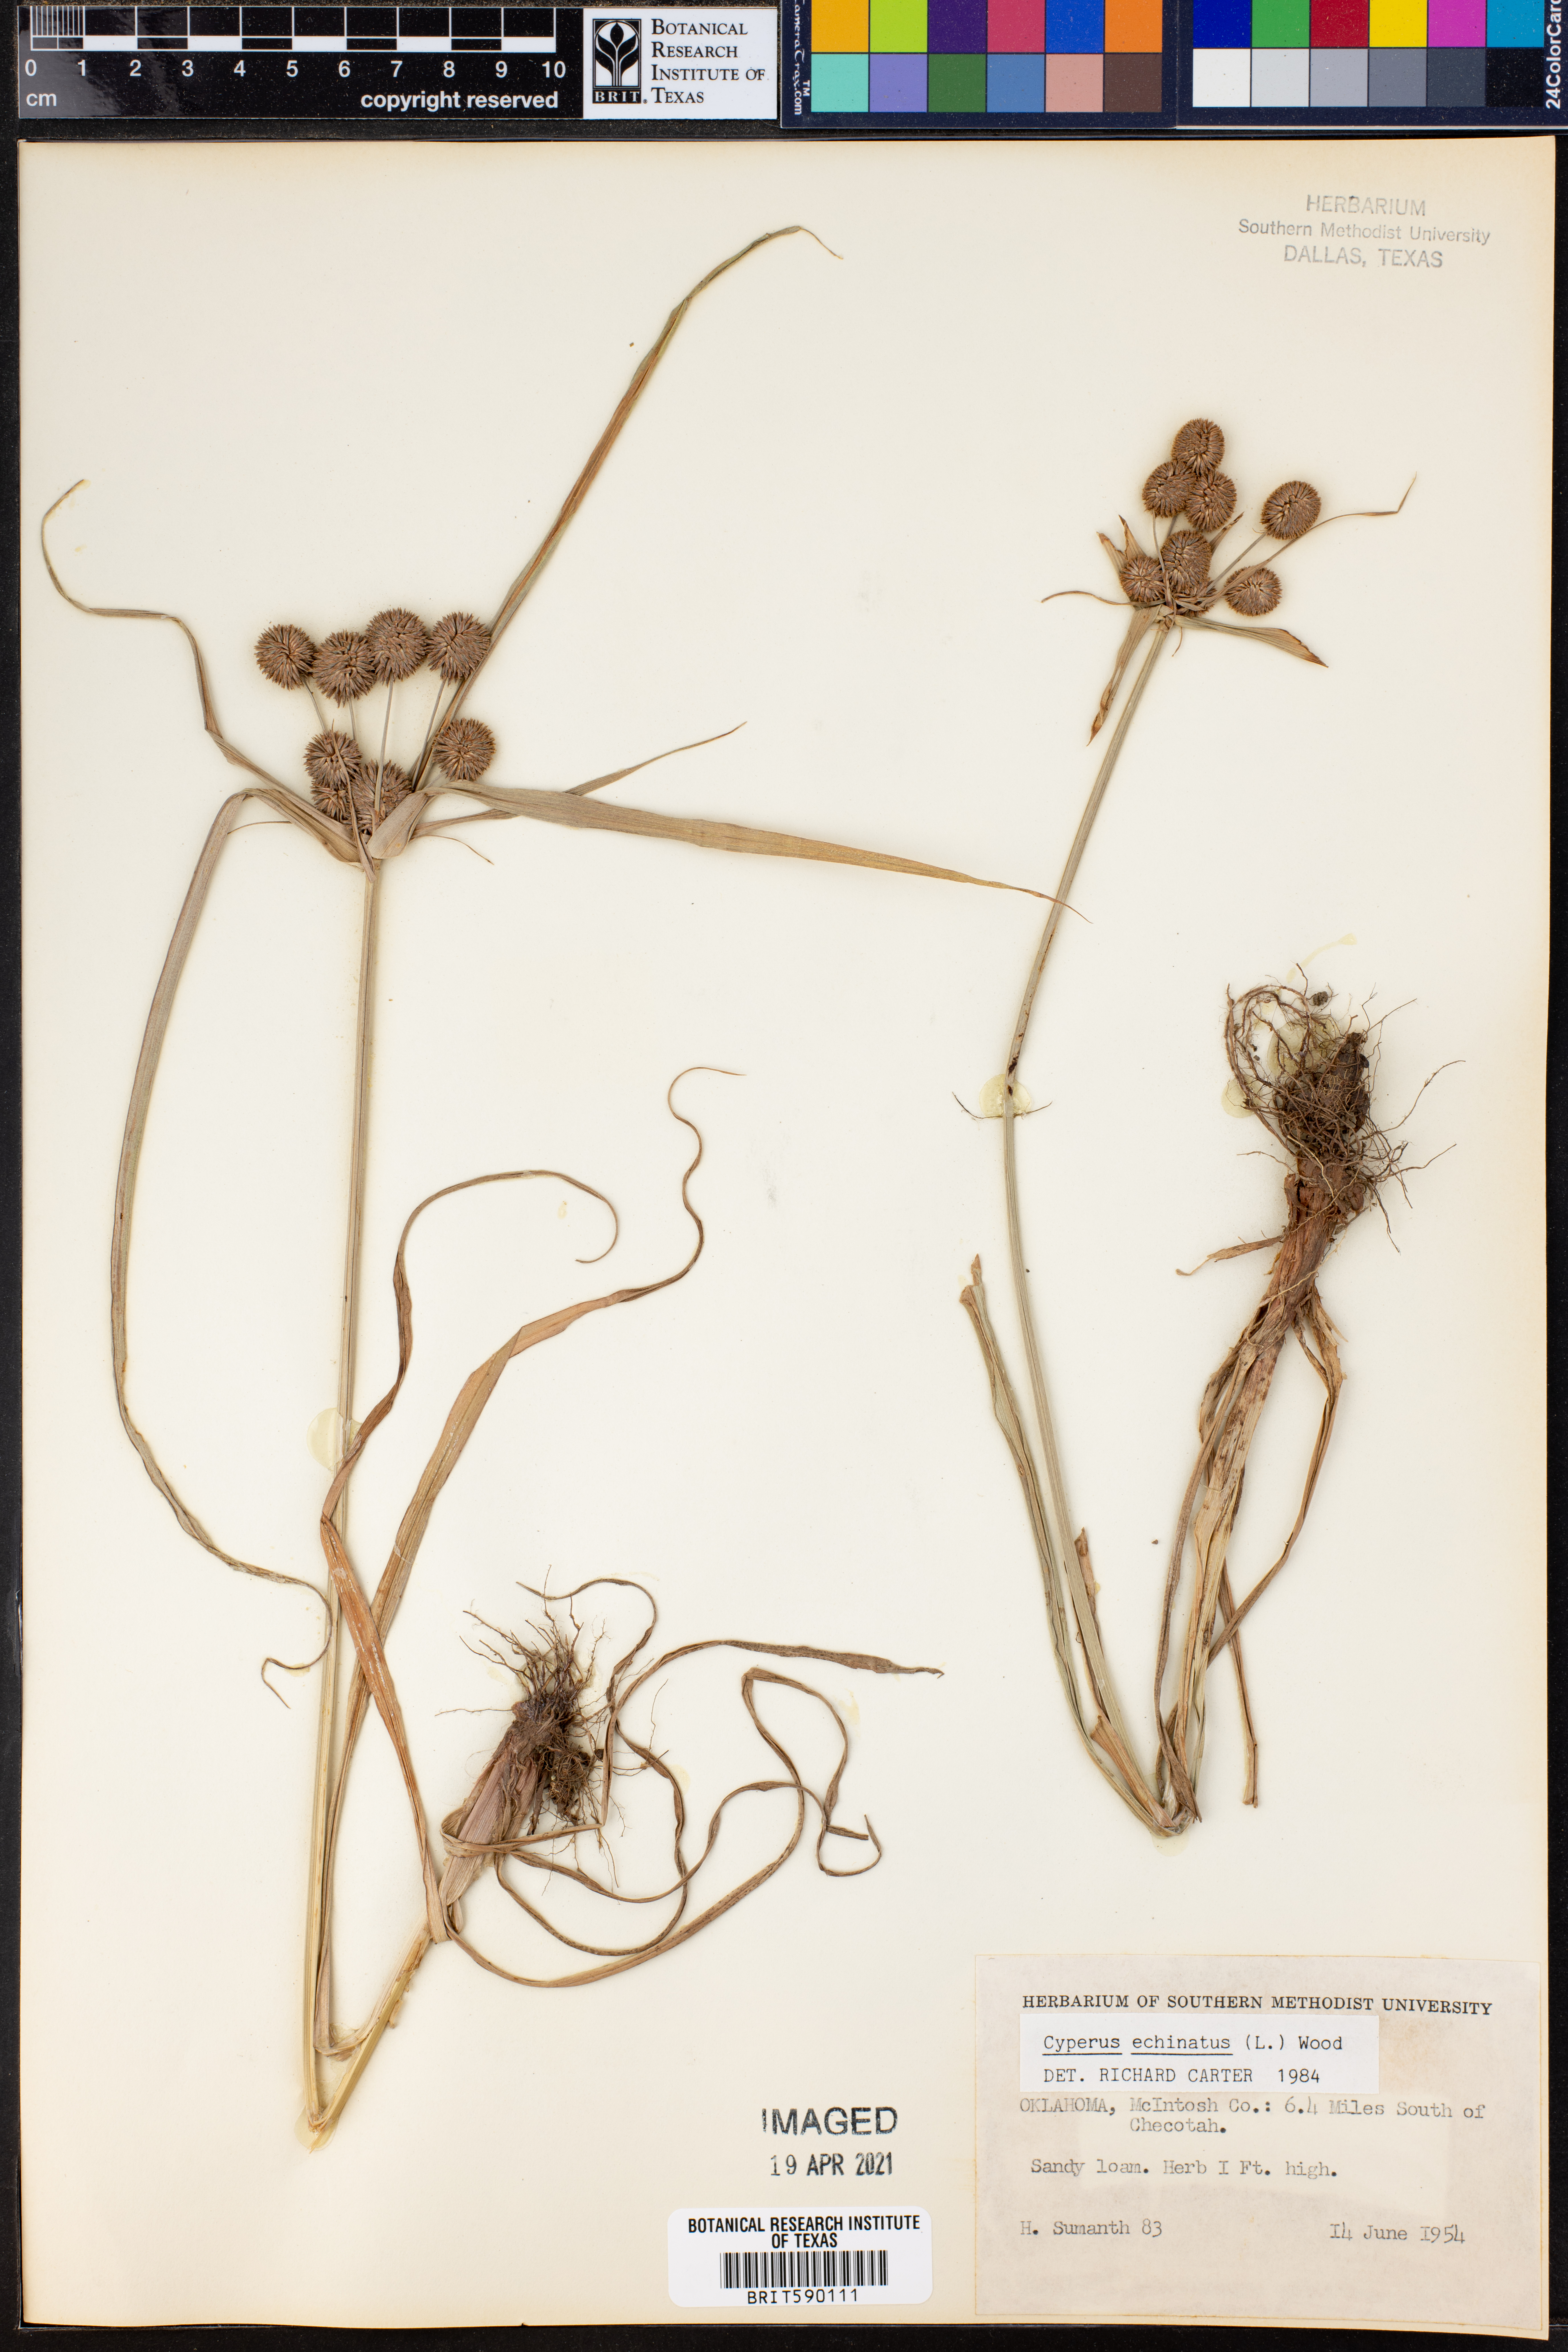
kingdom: Plantae
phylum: Tracheophyta
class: Liliopsida
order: Poales
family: Cyperaceae
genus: Cyperus
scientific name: Cyperus echinatus
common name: Teasel sedge
